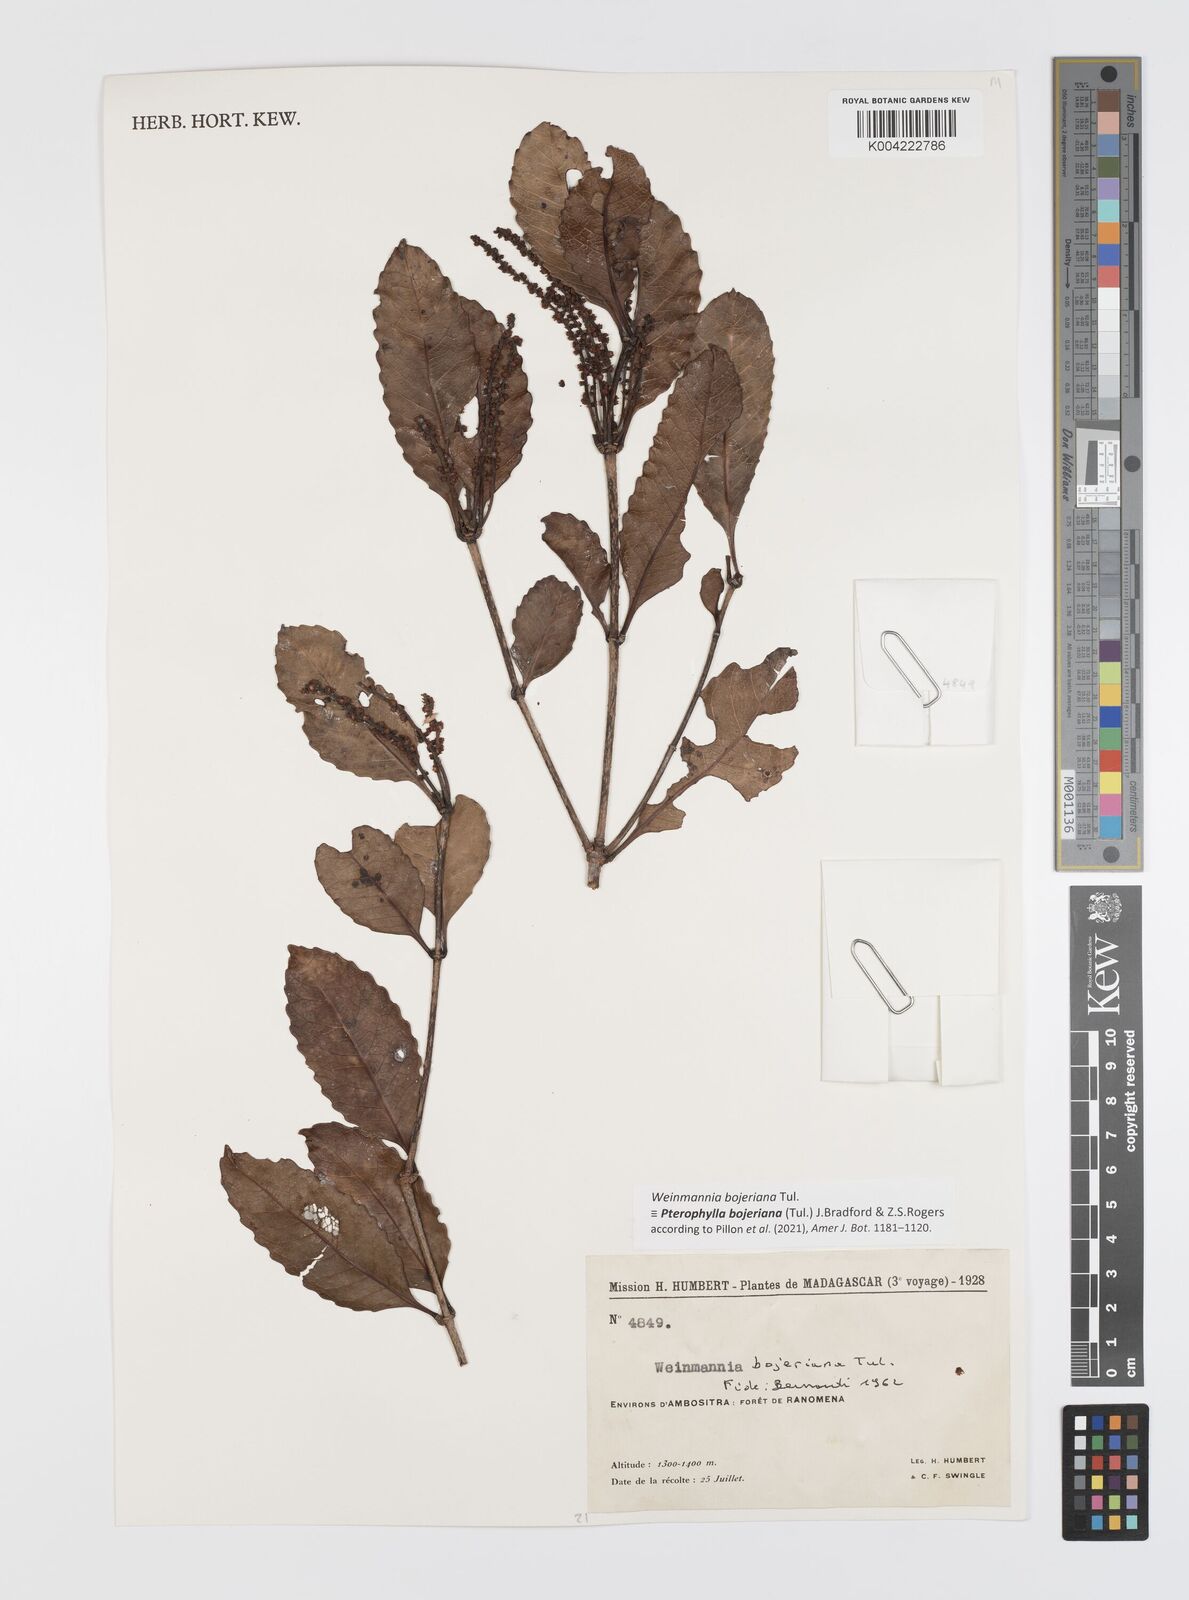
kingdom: Plantae
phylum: Tracheophyta
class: Magnoliopsida
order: Oxalidales
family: Cunoniaceae
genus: Pterophylla
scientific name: Pterophylla
